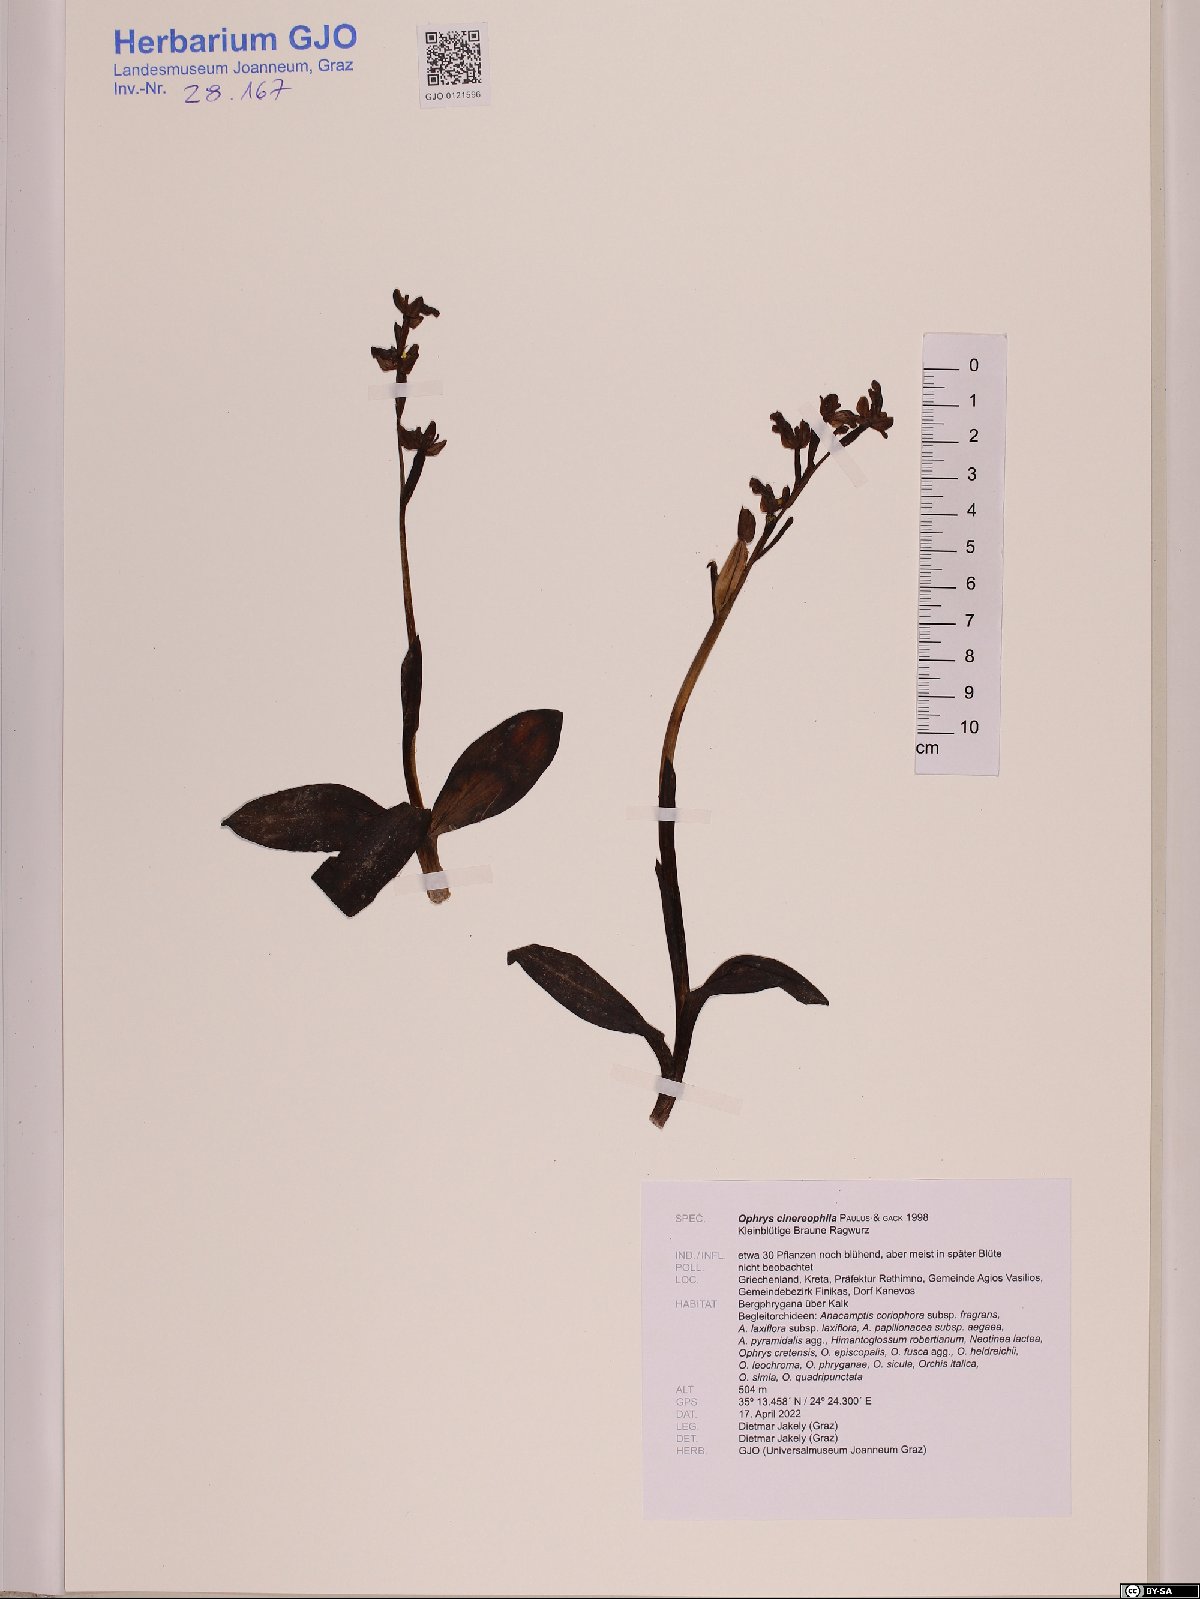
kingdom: Plantae
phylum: Tracheophyta
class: Liliopsida
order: Asparagales
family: Orchidaceae
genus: Ophrys
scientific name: Ophrys fusca
